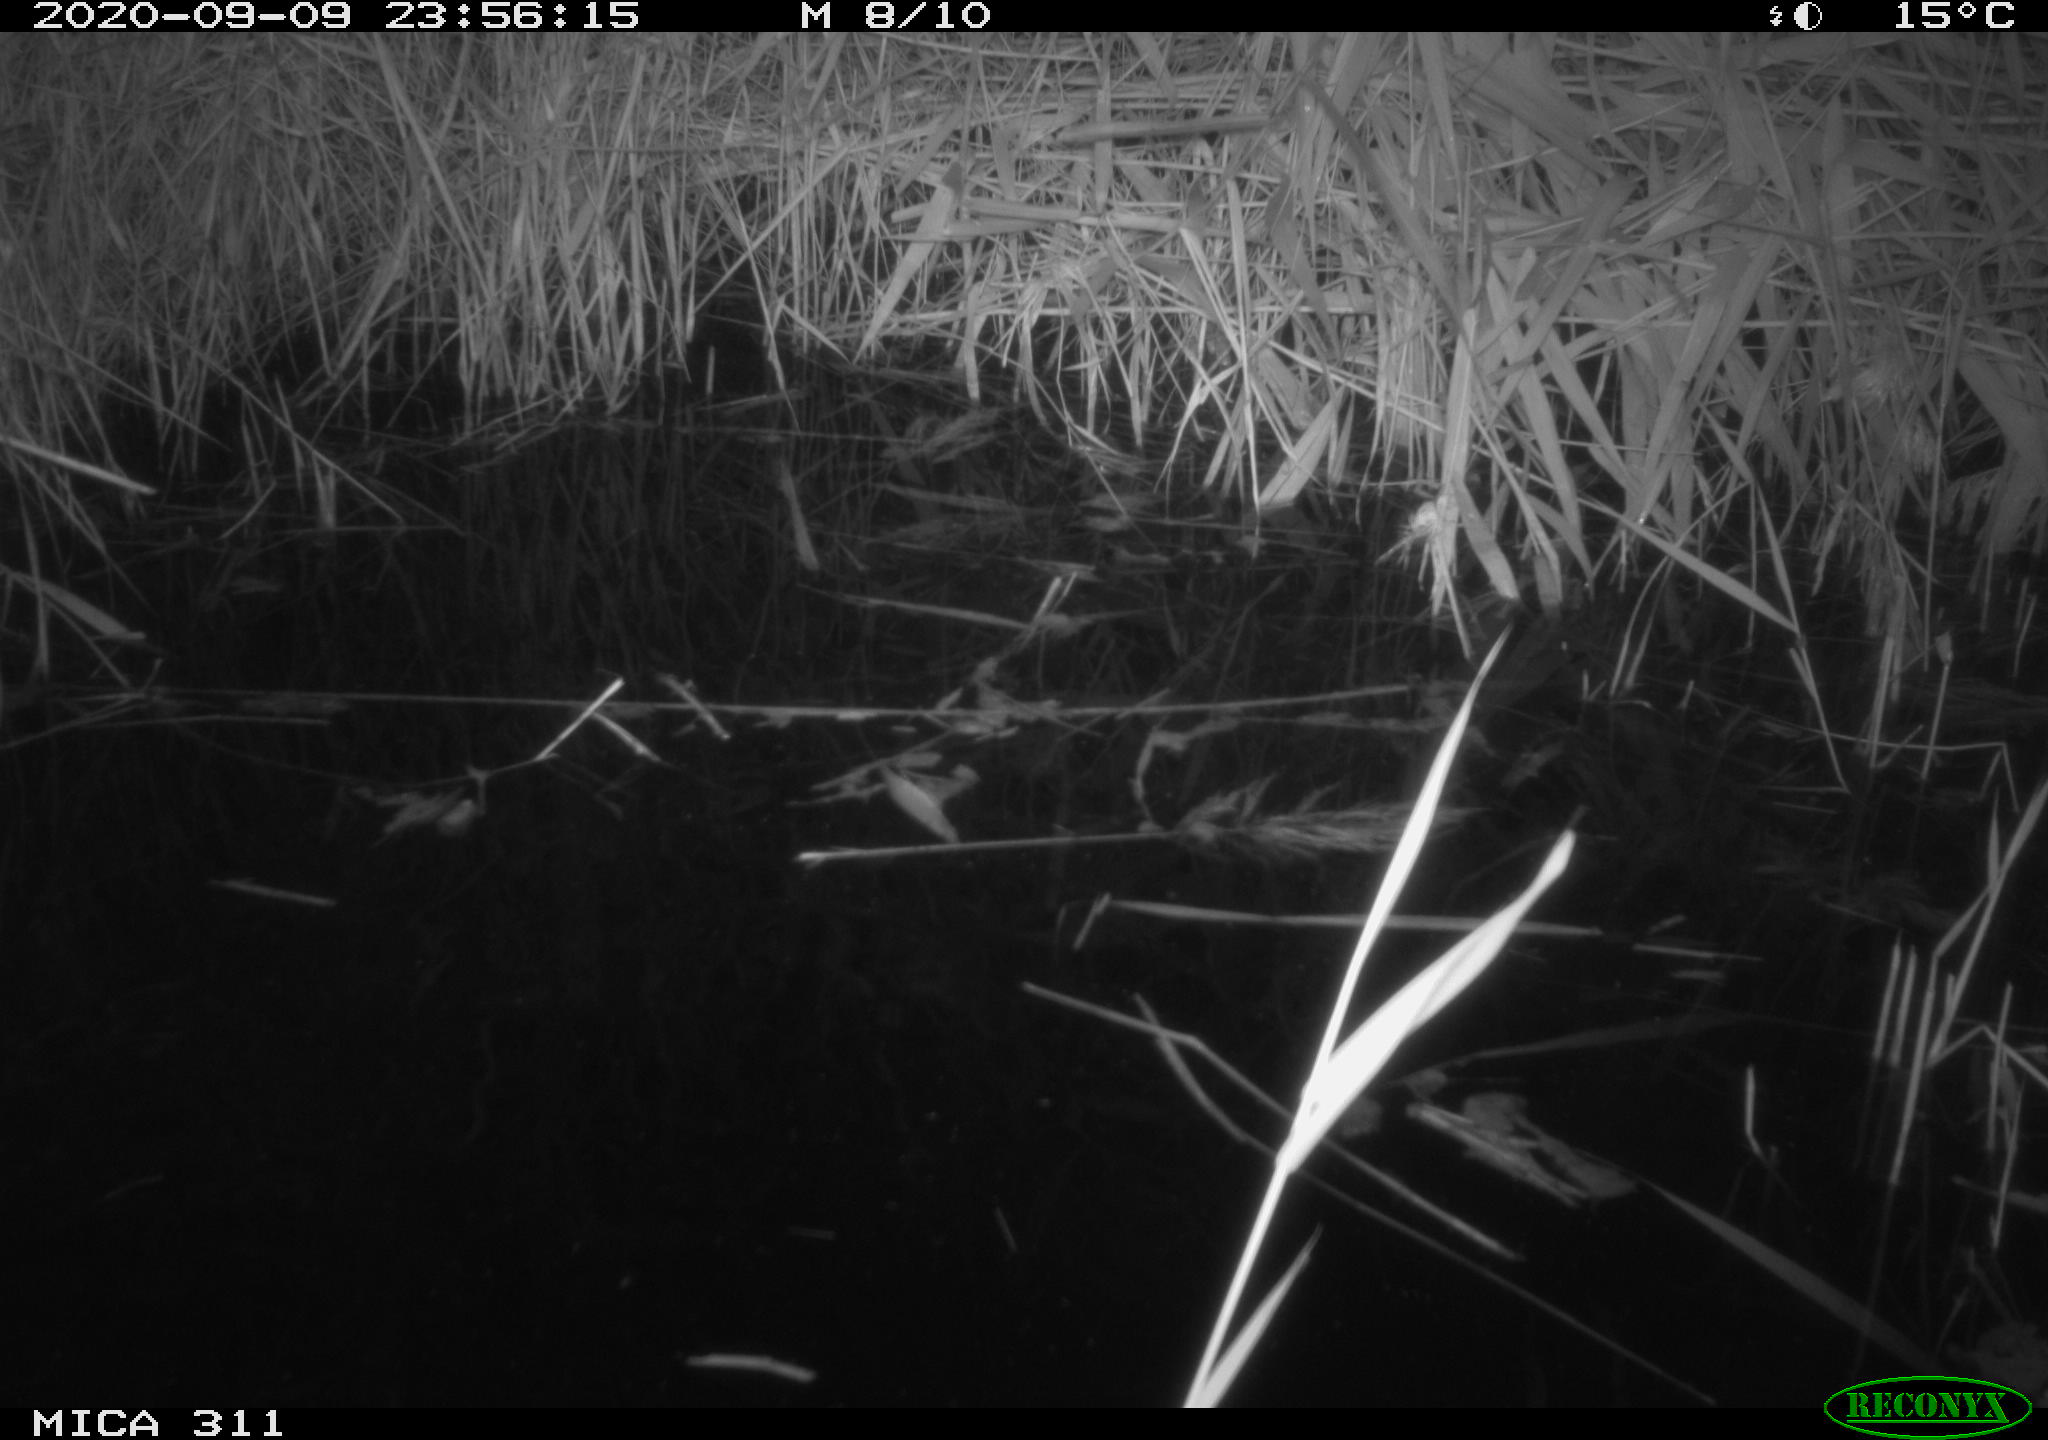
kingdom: Animalia
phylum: Chordata
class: Mammalia
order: Rodentia
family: Muridae
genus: Rattus
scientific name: Rattus norvegicus
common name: Brown rat
